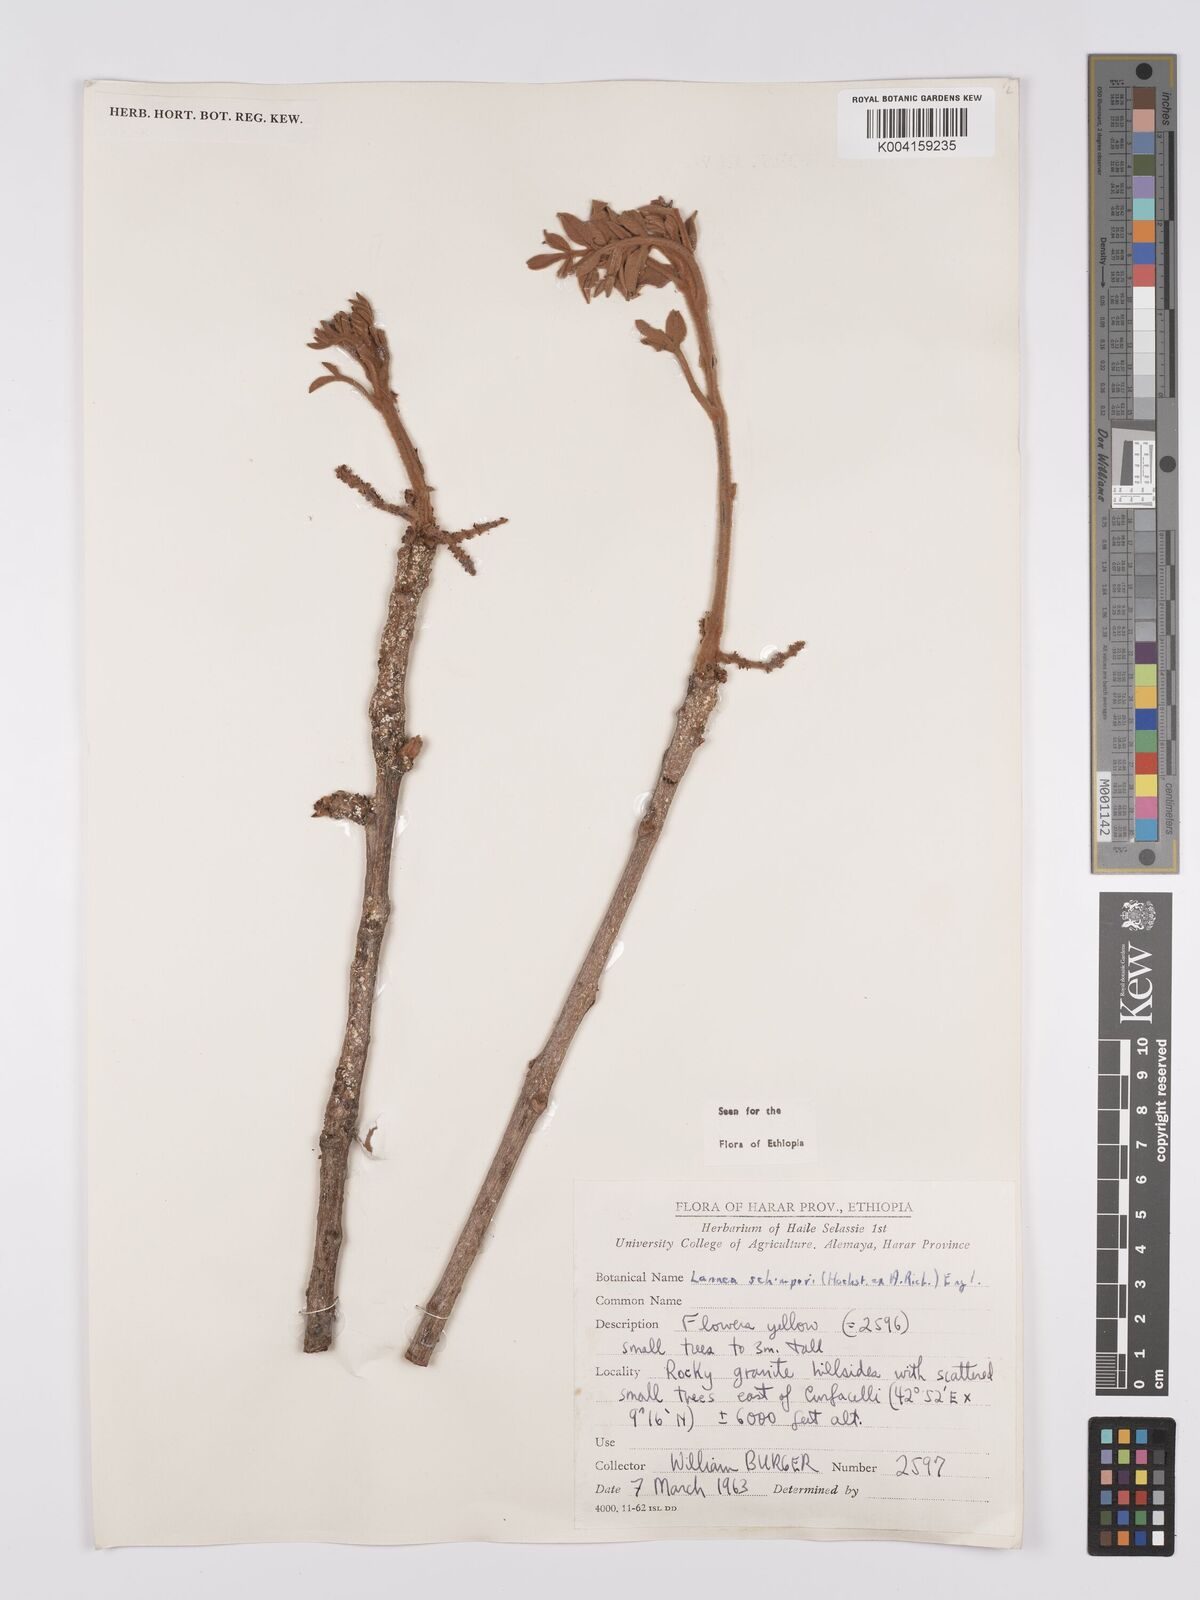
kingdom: Plantae
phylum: Tracheophyta
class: Magnoliopsida
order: Sapindales
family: Anacardiaceae
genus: Lannea
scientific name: Lannea schimperi
